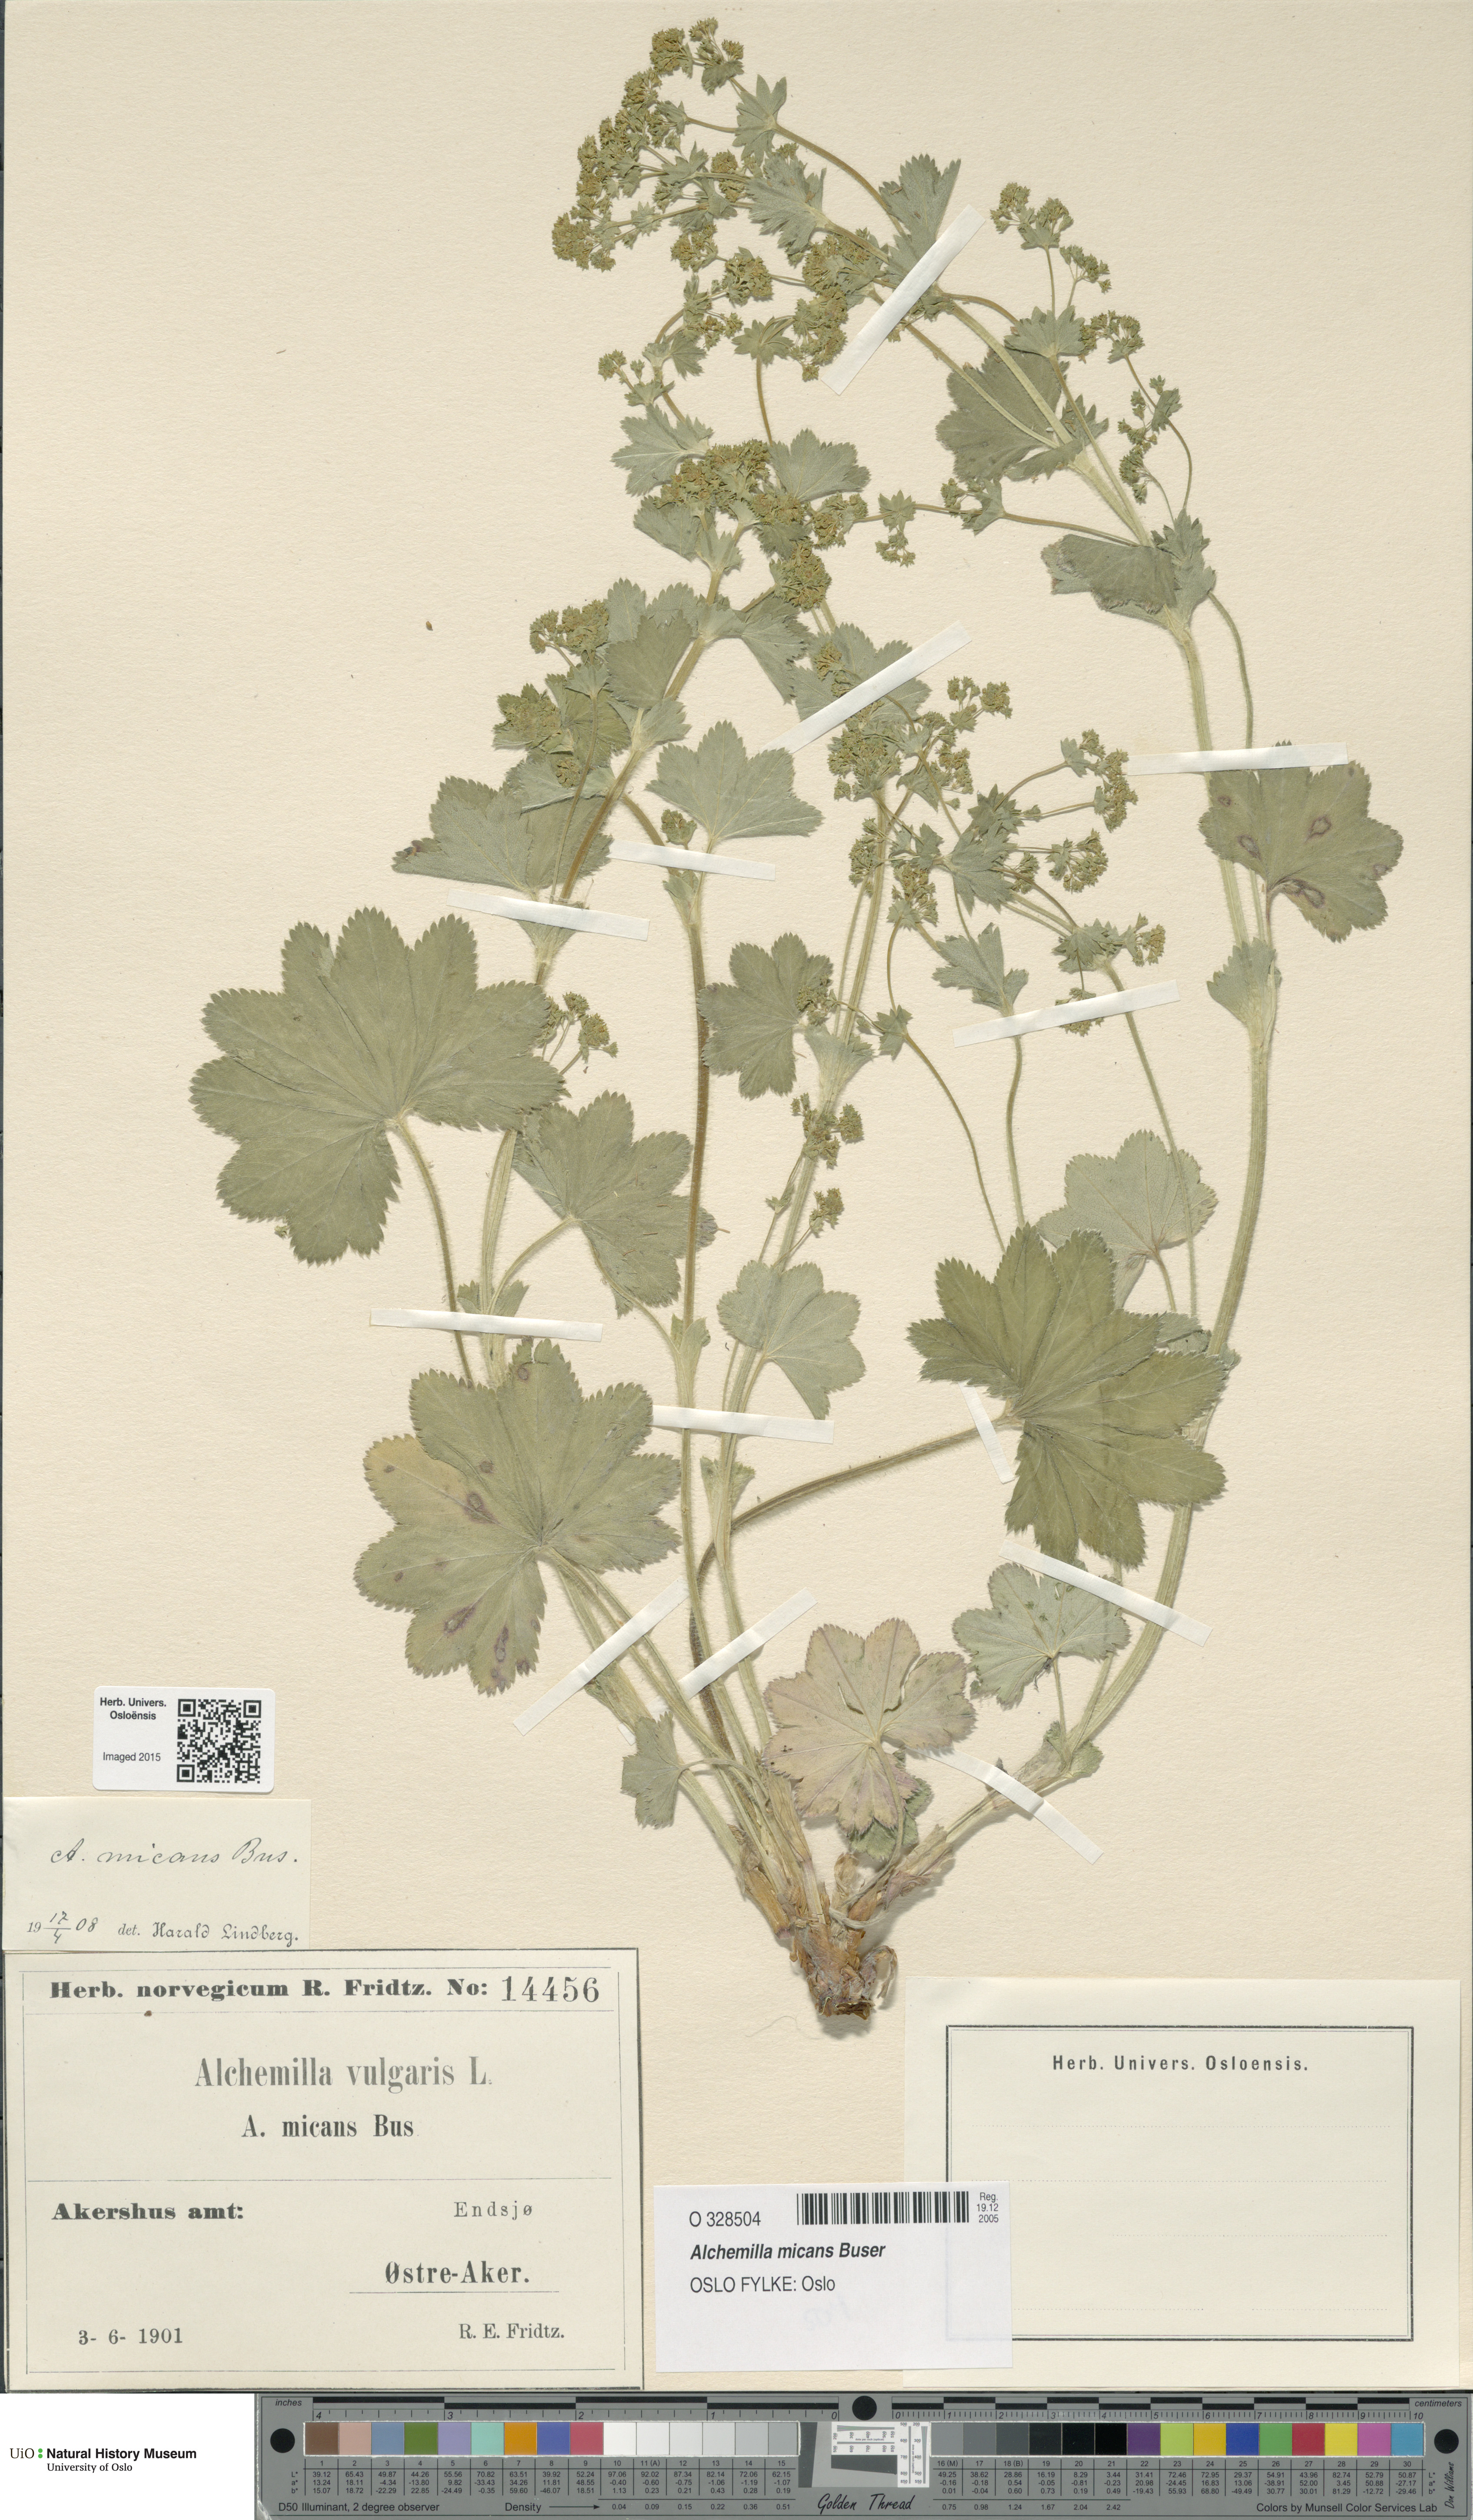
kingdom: Plantae
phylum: Tracheophyta
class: Magnoliopsida
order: Rosales
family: Rosaceae
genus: Alchemilla
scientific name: Alchemilla micans
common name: Gleaming lady's mantle
